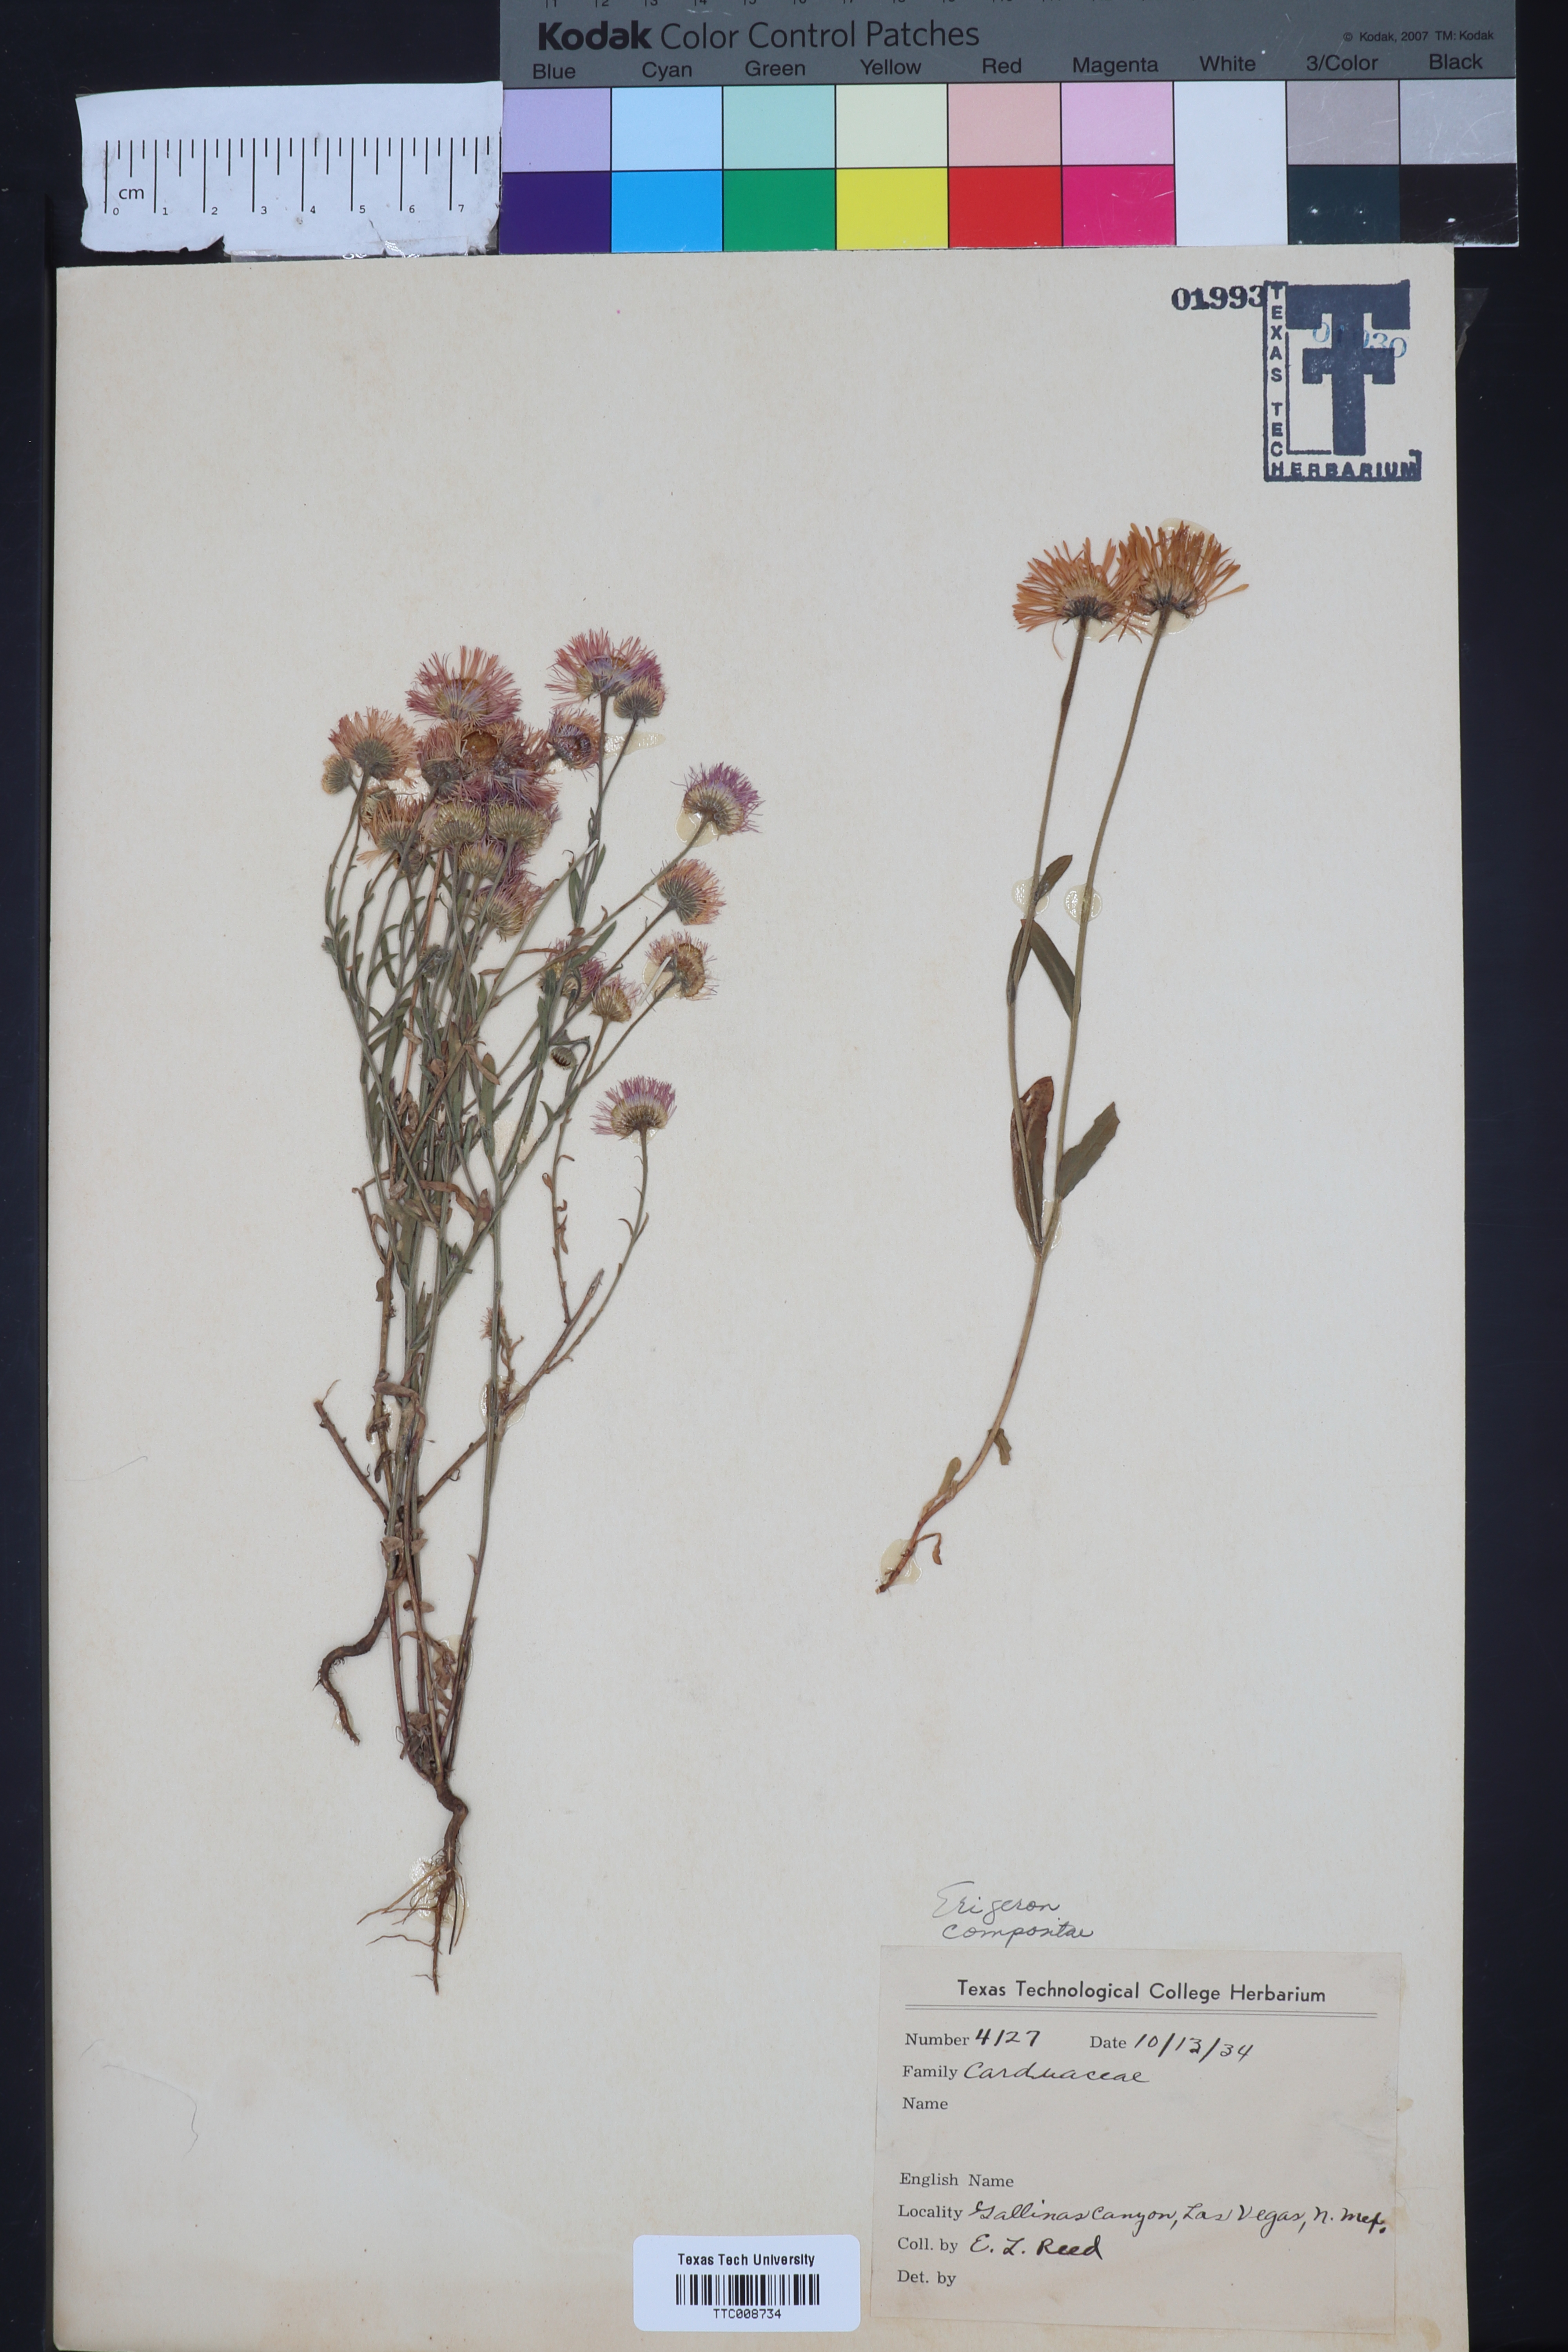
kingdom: Plantae
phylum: Tracheophyta
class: Magnoliopsida
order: Asterales
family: Asteraceae
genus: Erigeron
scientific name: Erigeron
